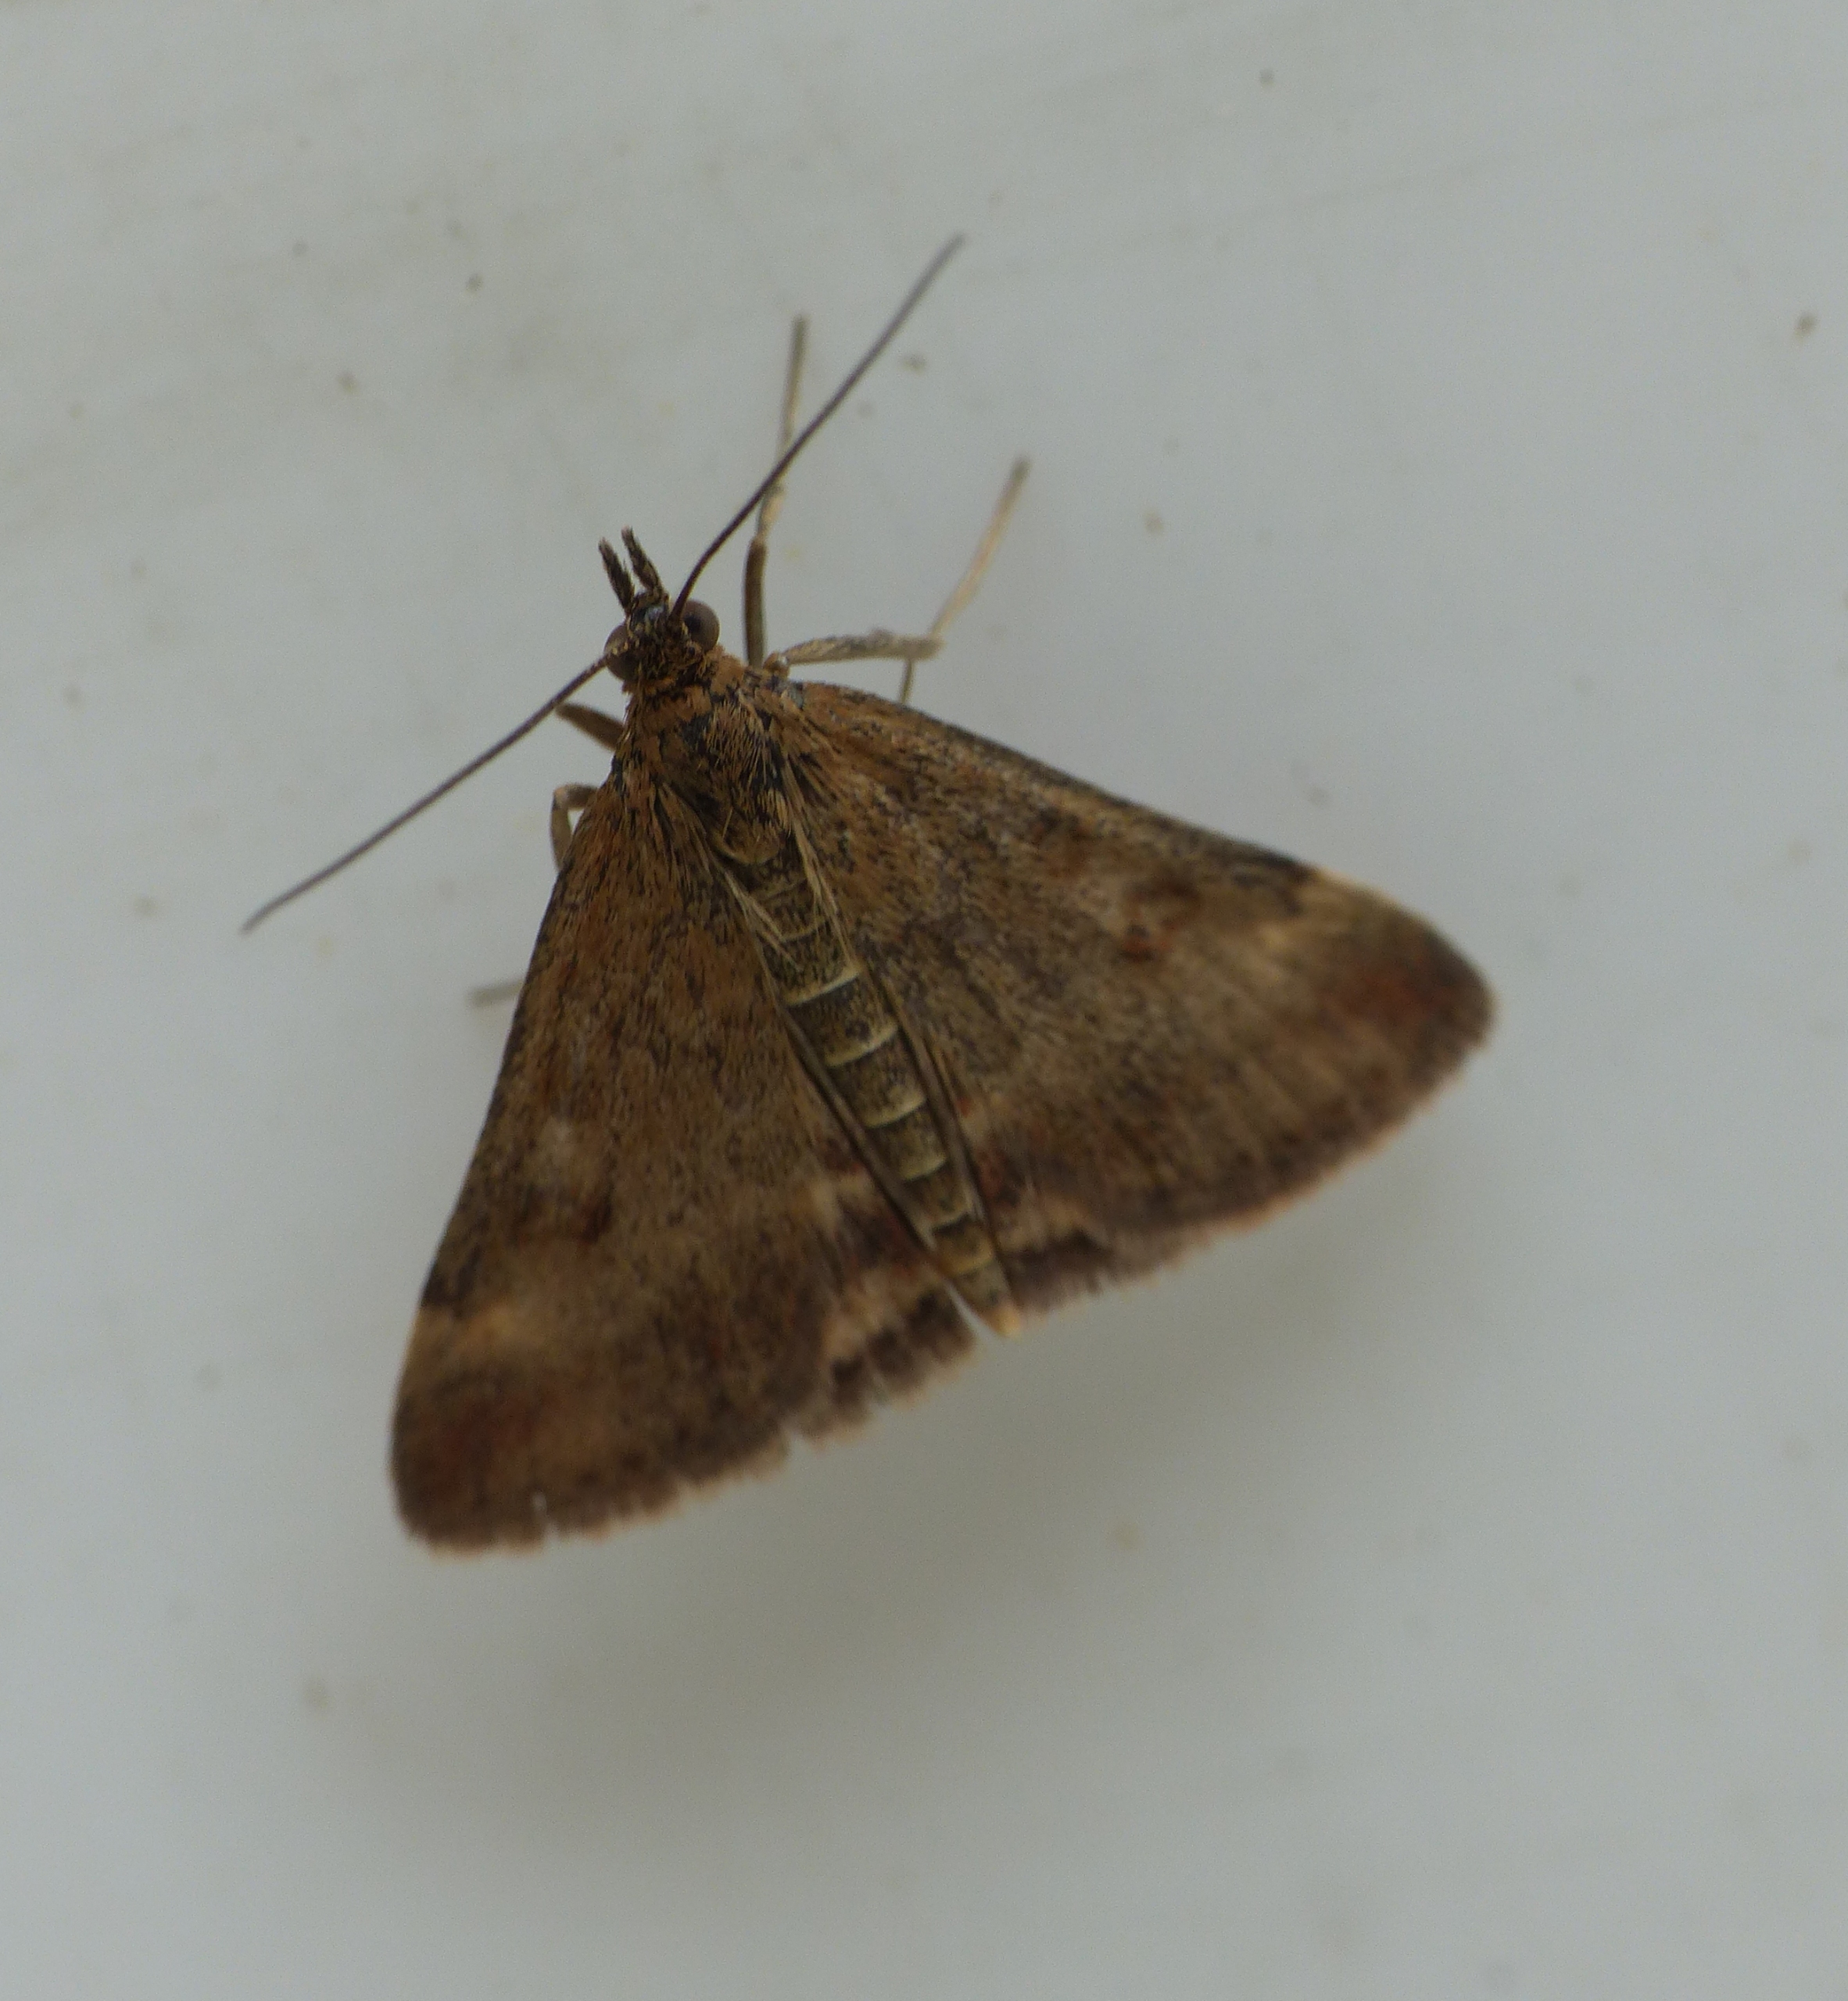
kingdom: Animalia
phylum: Arthropoda
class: Insecta
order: Lepidoptera
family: Crambidae
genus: Pyrausta
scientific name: Pyrausta despicata
